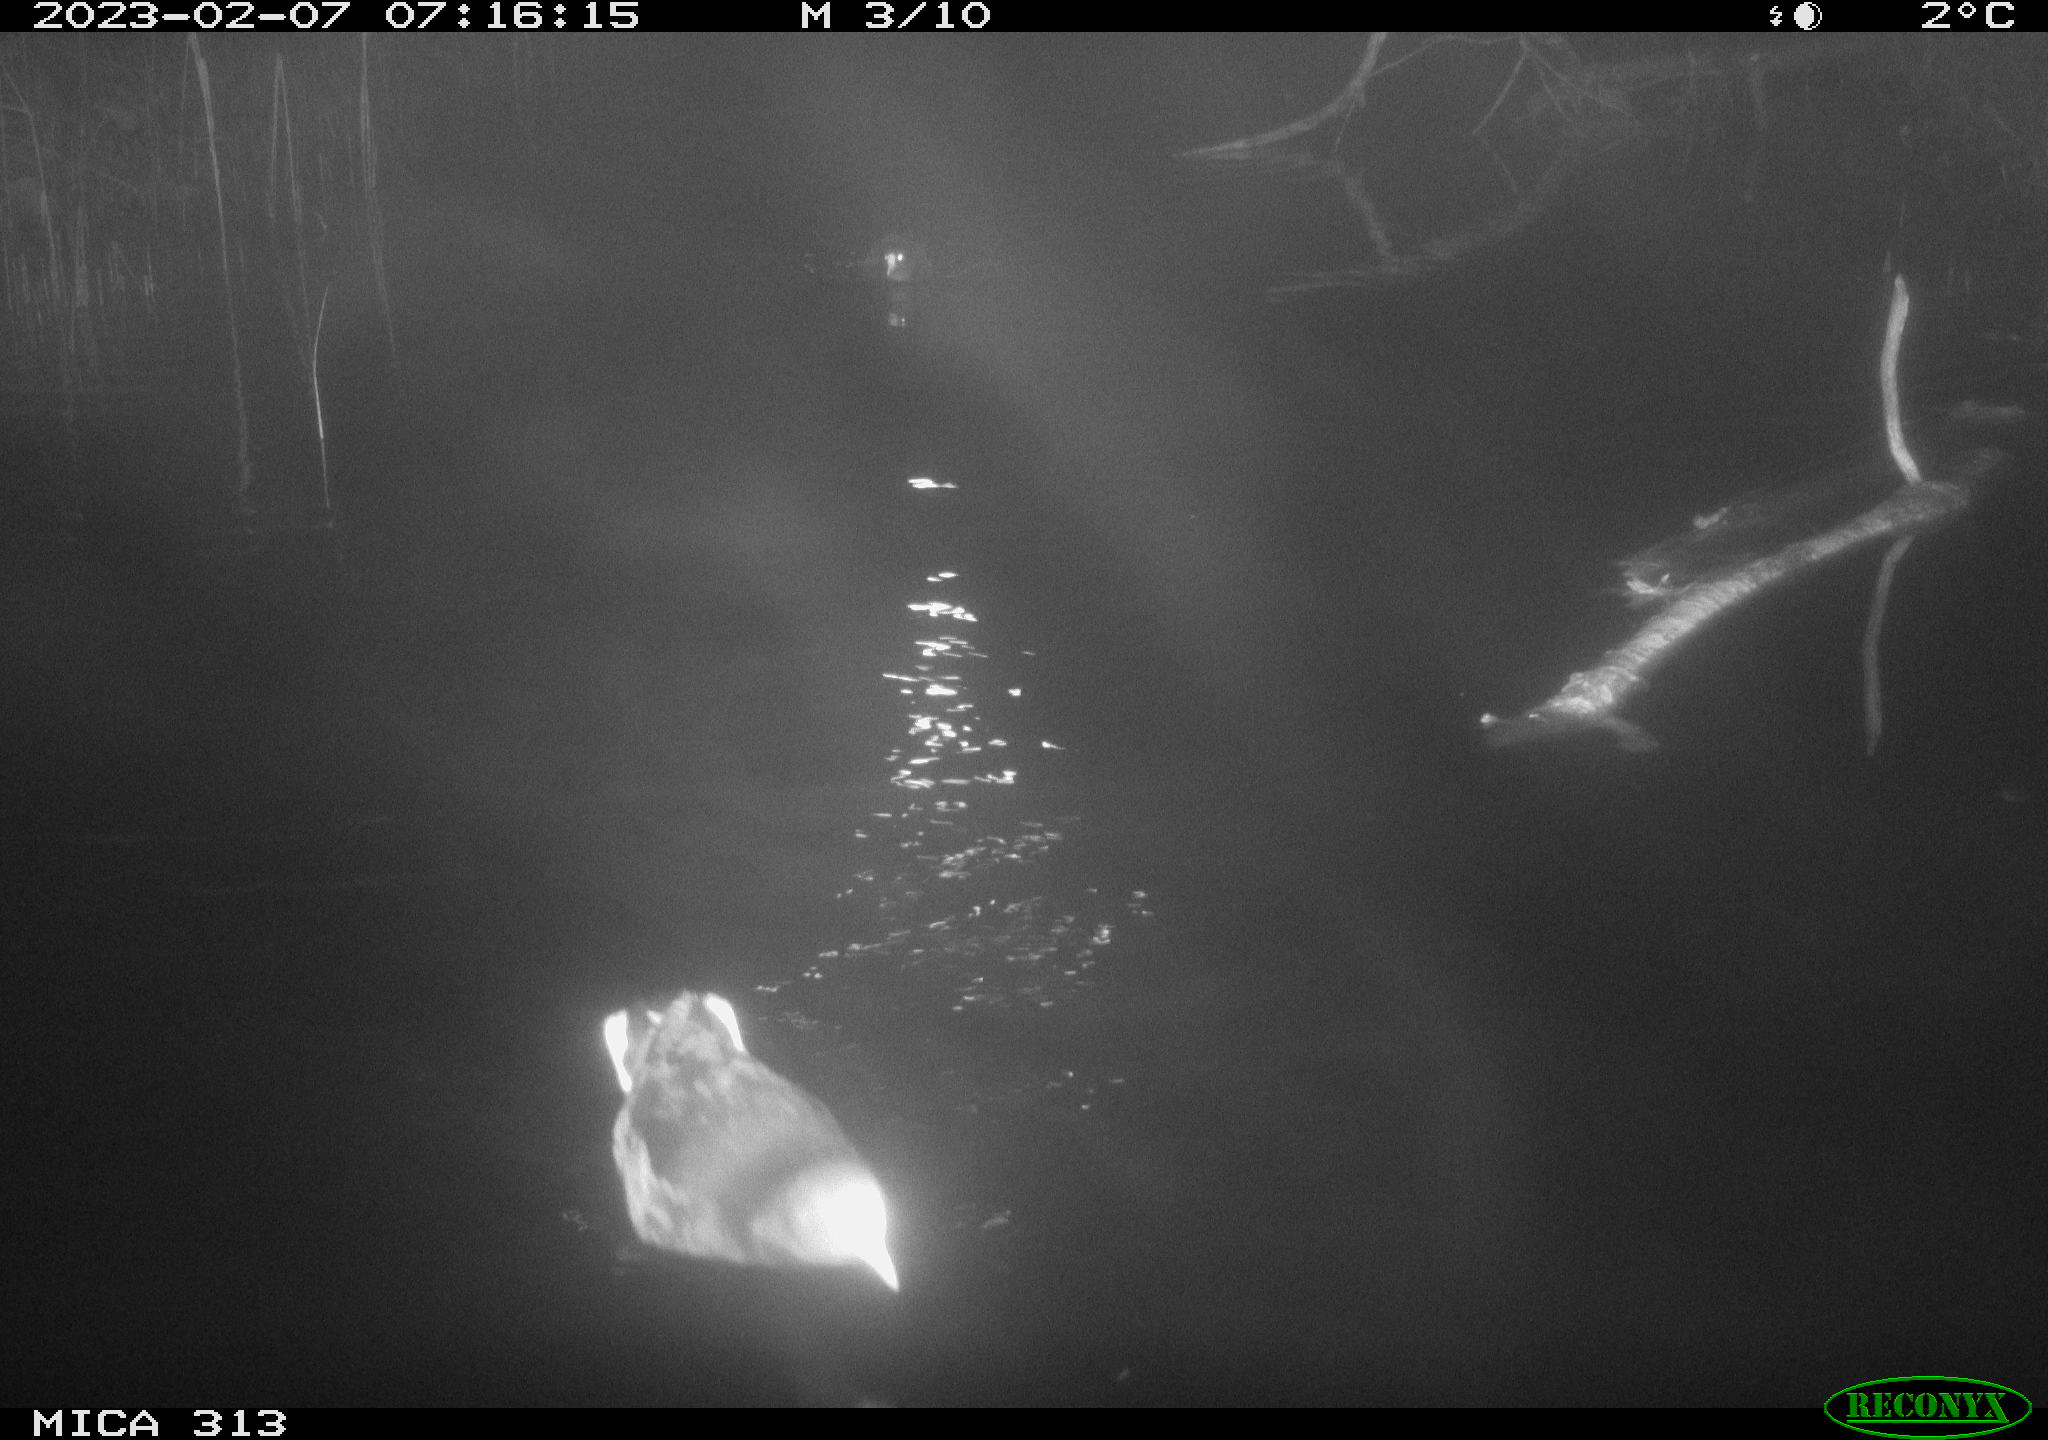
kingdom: Animalia
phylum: Chordata
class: Aves
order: Anseriformes
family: Anatidae
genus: Anas
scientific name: Anas
